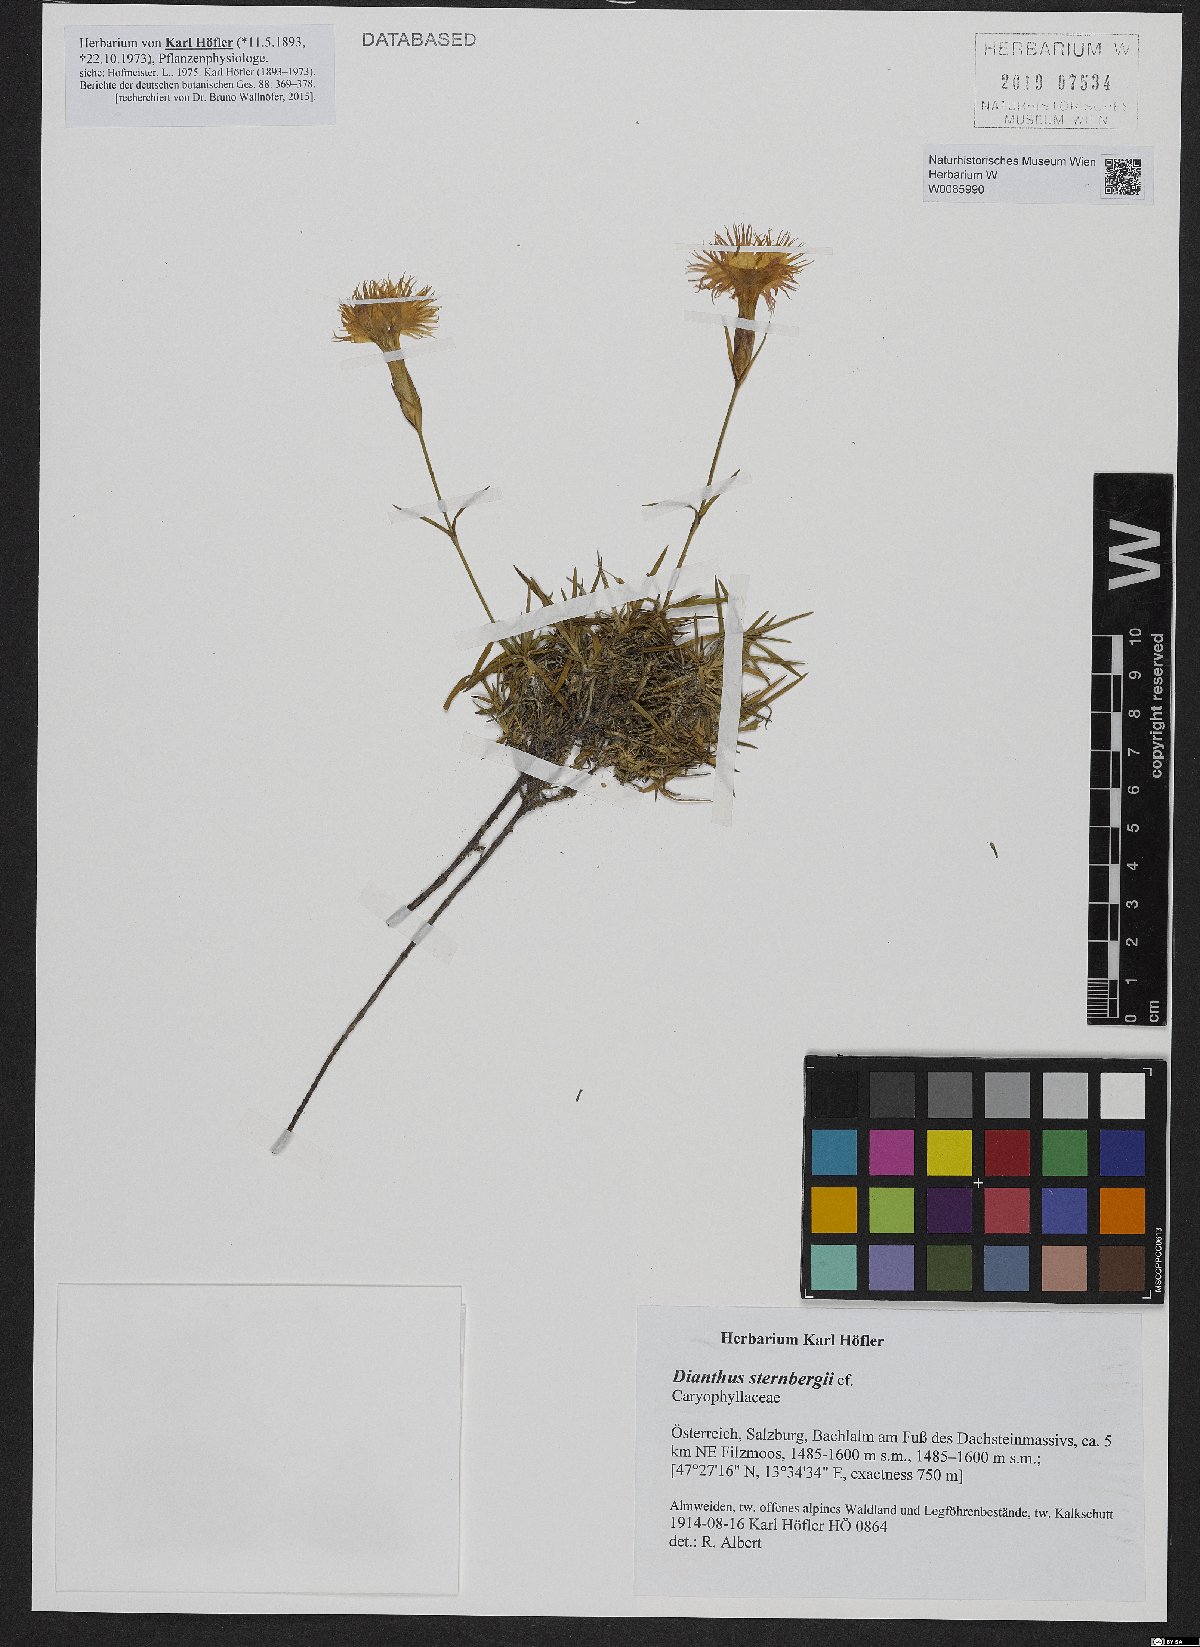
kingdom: Plantae
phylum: Tracheophyta
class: Magnoliopsida
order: Caryophyllales
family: Caryophyllaceae
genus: Dianthus
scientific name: Dianthus sternbergii
